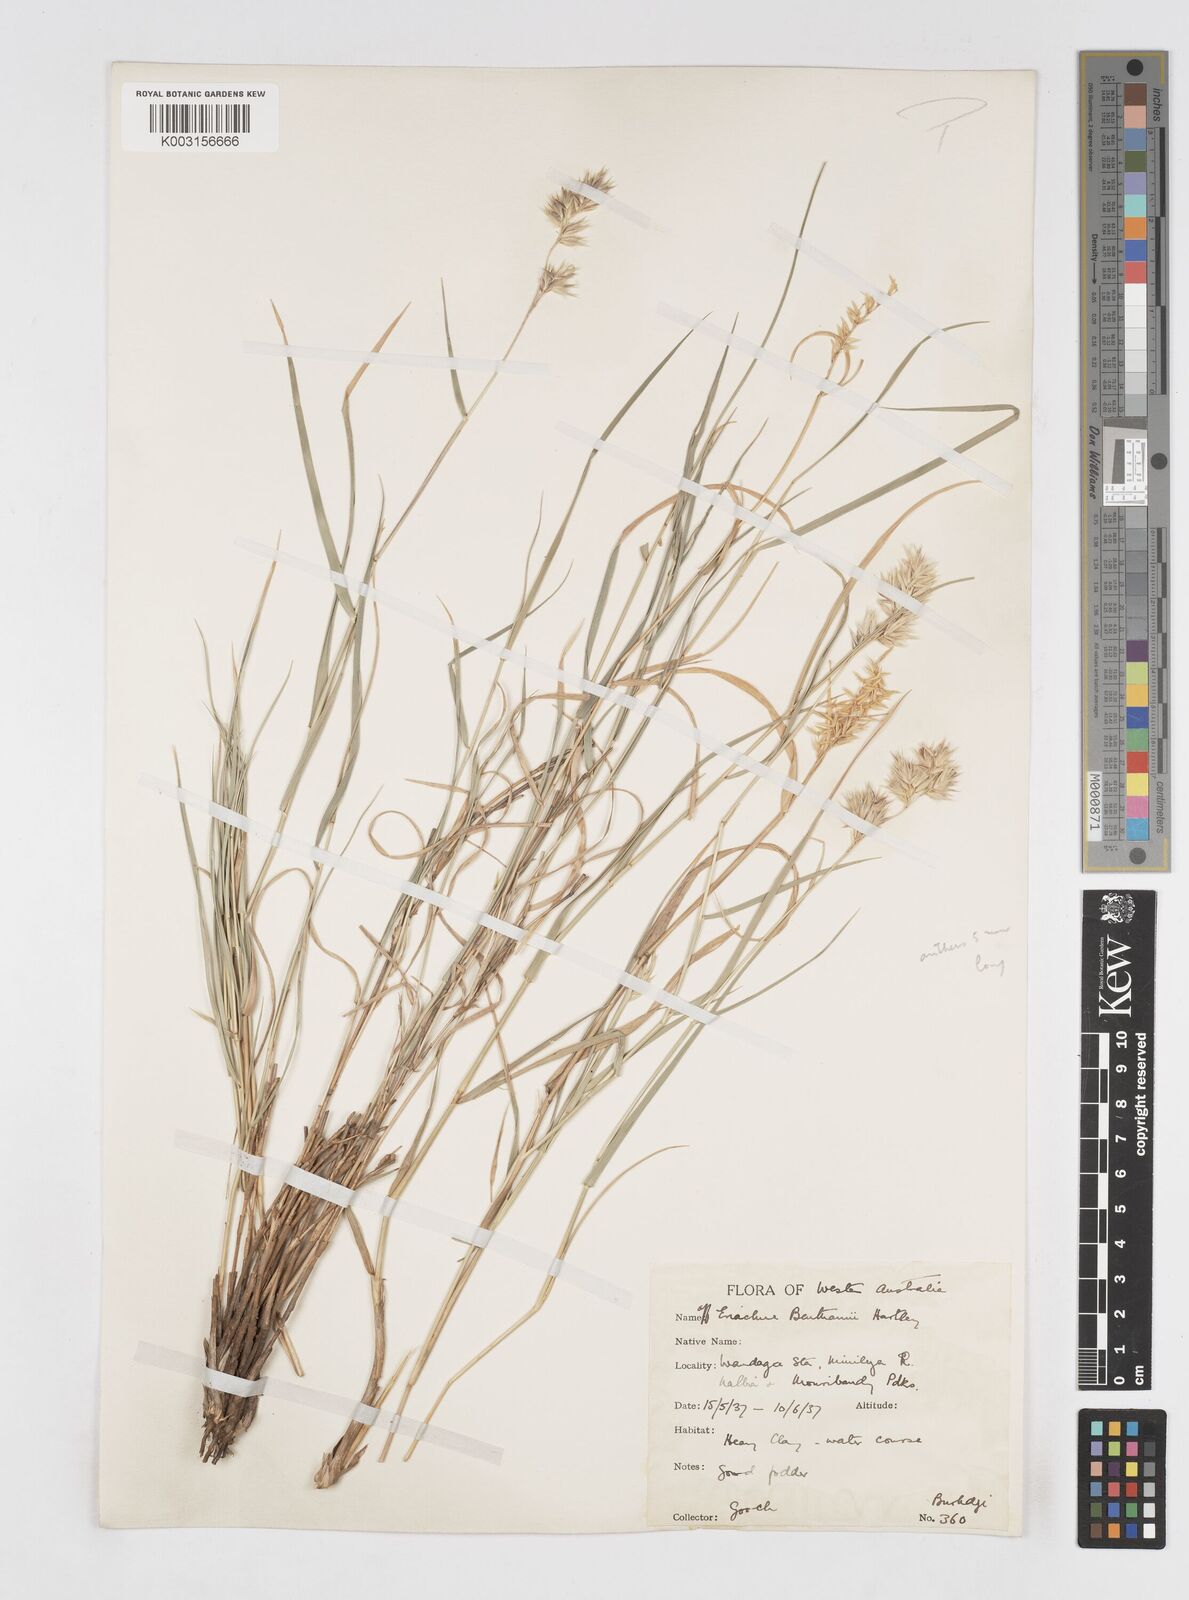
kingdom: Plantae
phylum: Tracheophyta
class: Liliopsida
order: Poales
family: Poaceae
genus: Eriachne
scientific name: Eriachne benthamii
